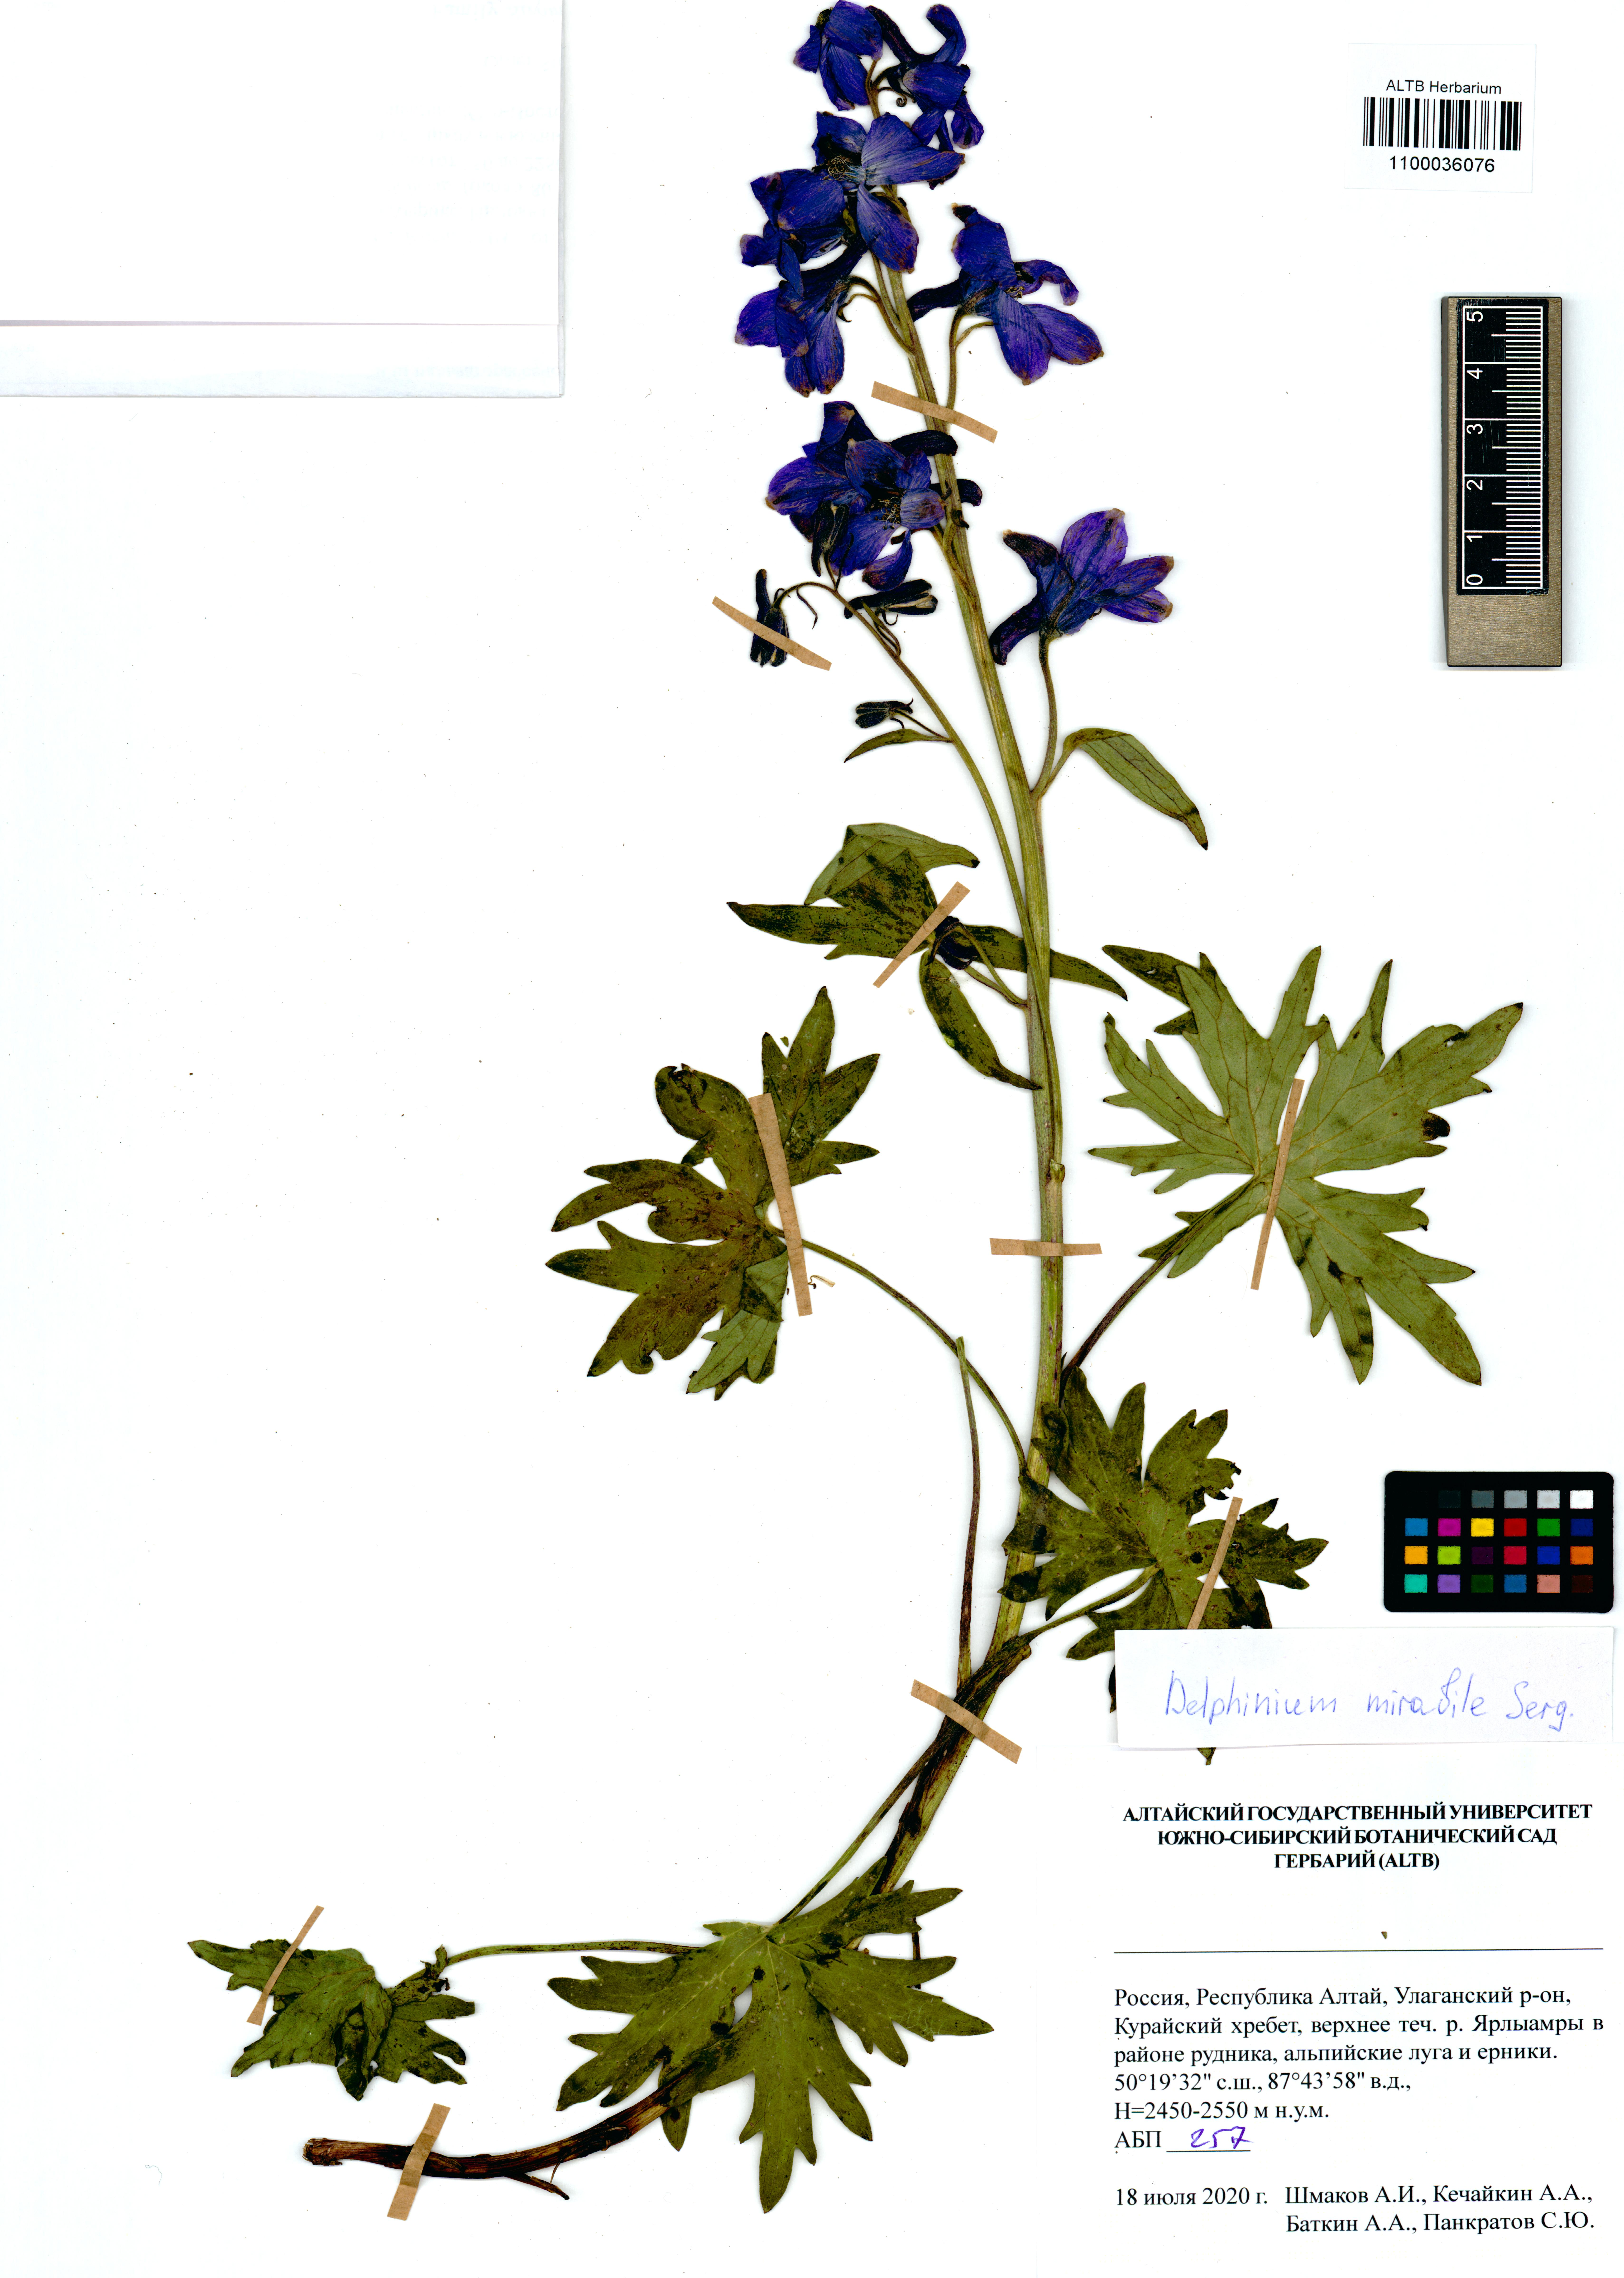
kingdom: Plantae
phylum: Tracheophyta
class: Magnoliopsida
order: Ranunculales
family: Ranunculaceae
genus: Delphinium
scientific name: Delphinium mirabile
